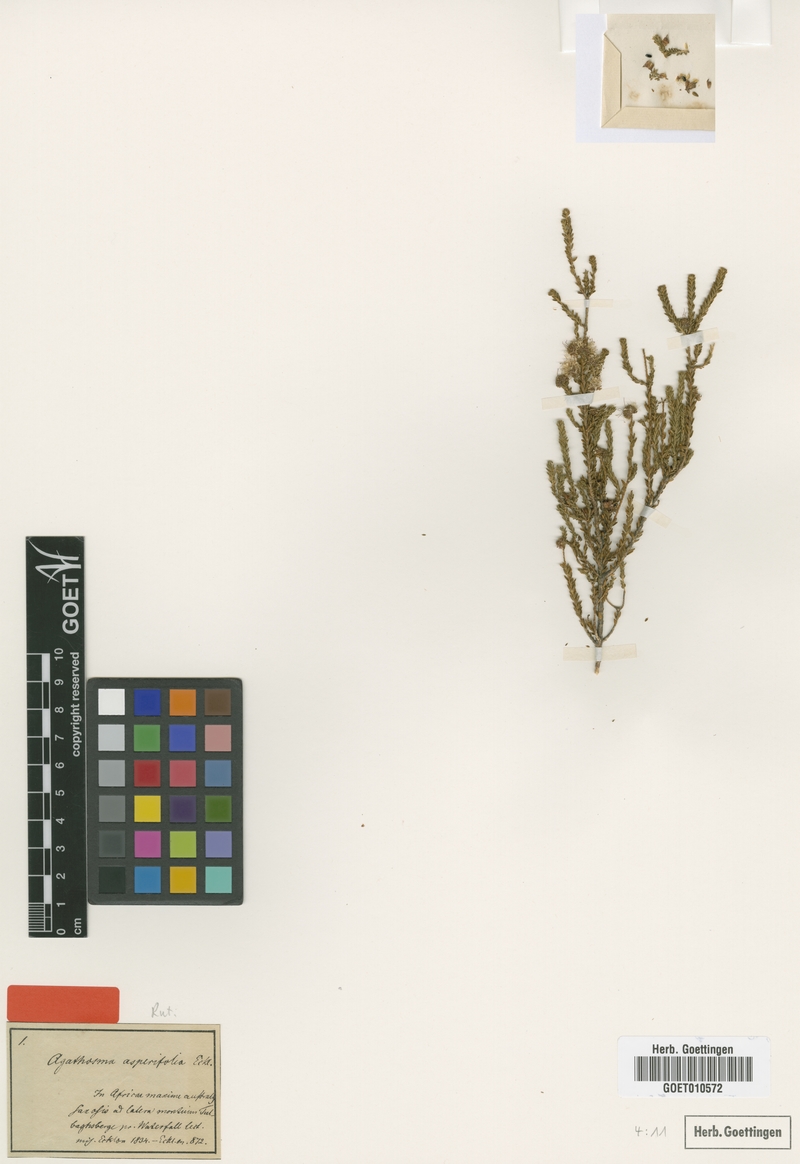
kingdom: Plantae
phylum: Tracheophyta
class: Magnoliopsida
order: Sapindales
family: Rutaceae
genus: Agathosma
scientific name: Agathosma asperifolia
